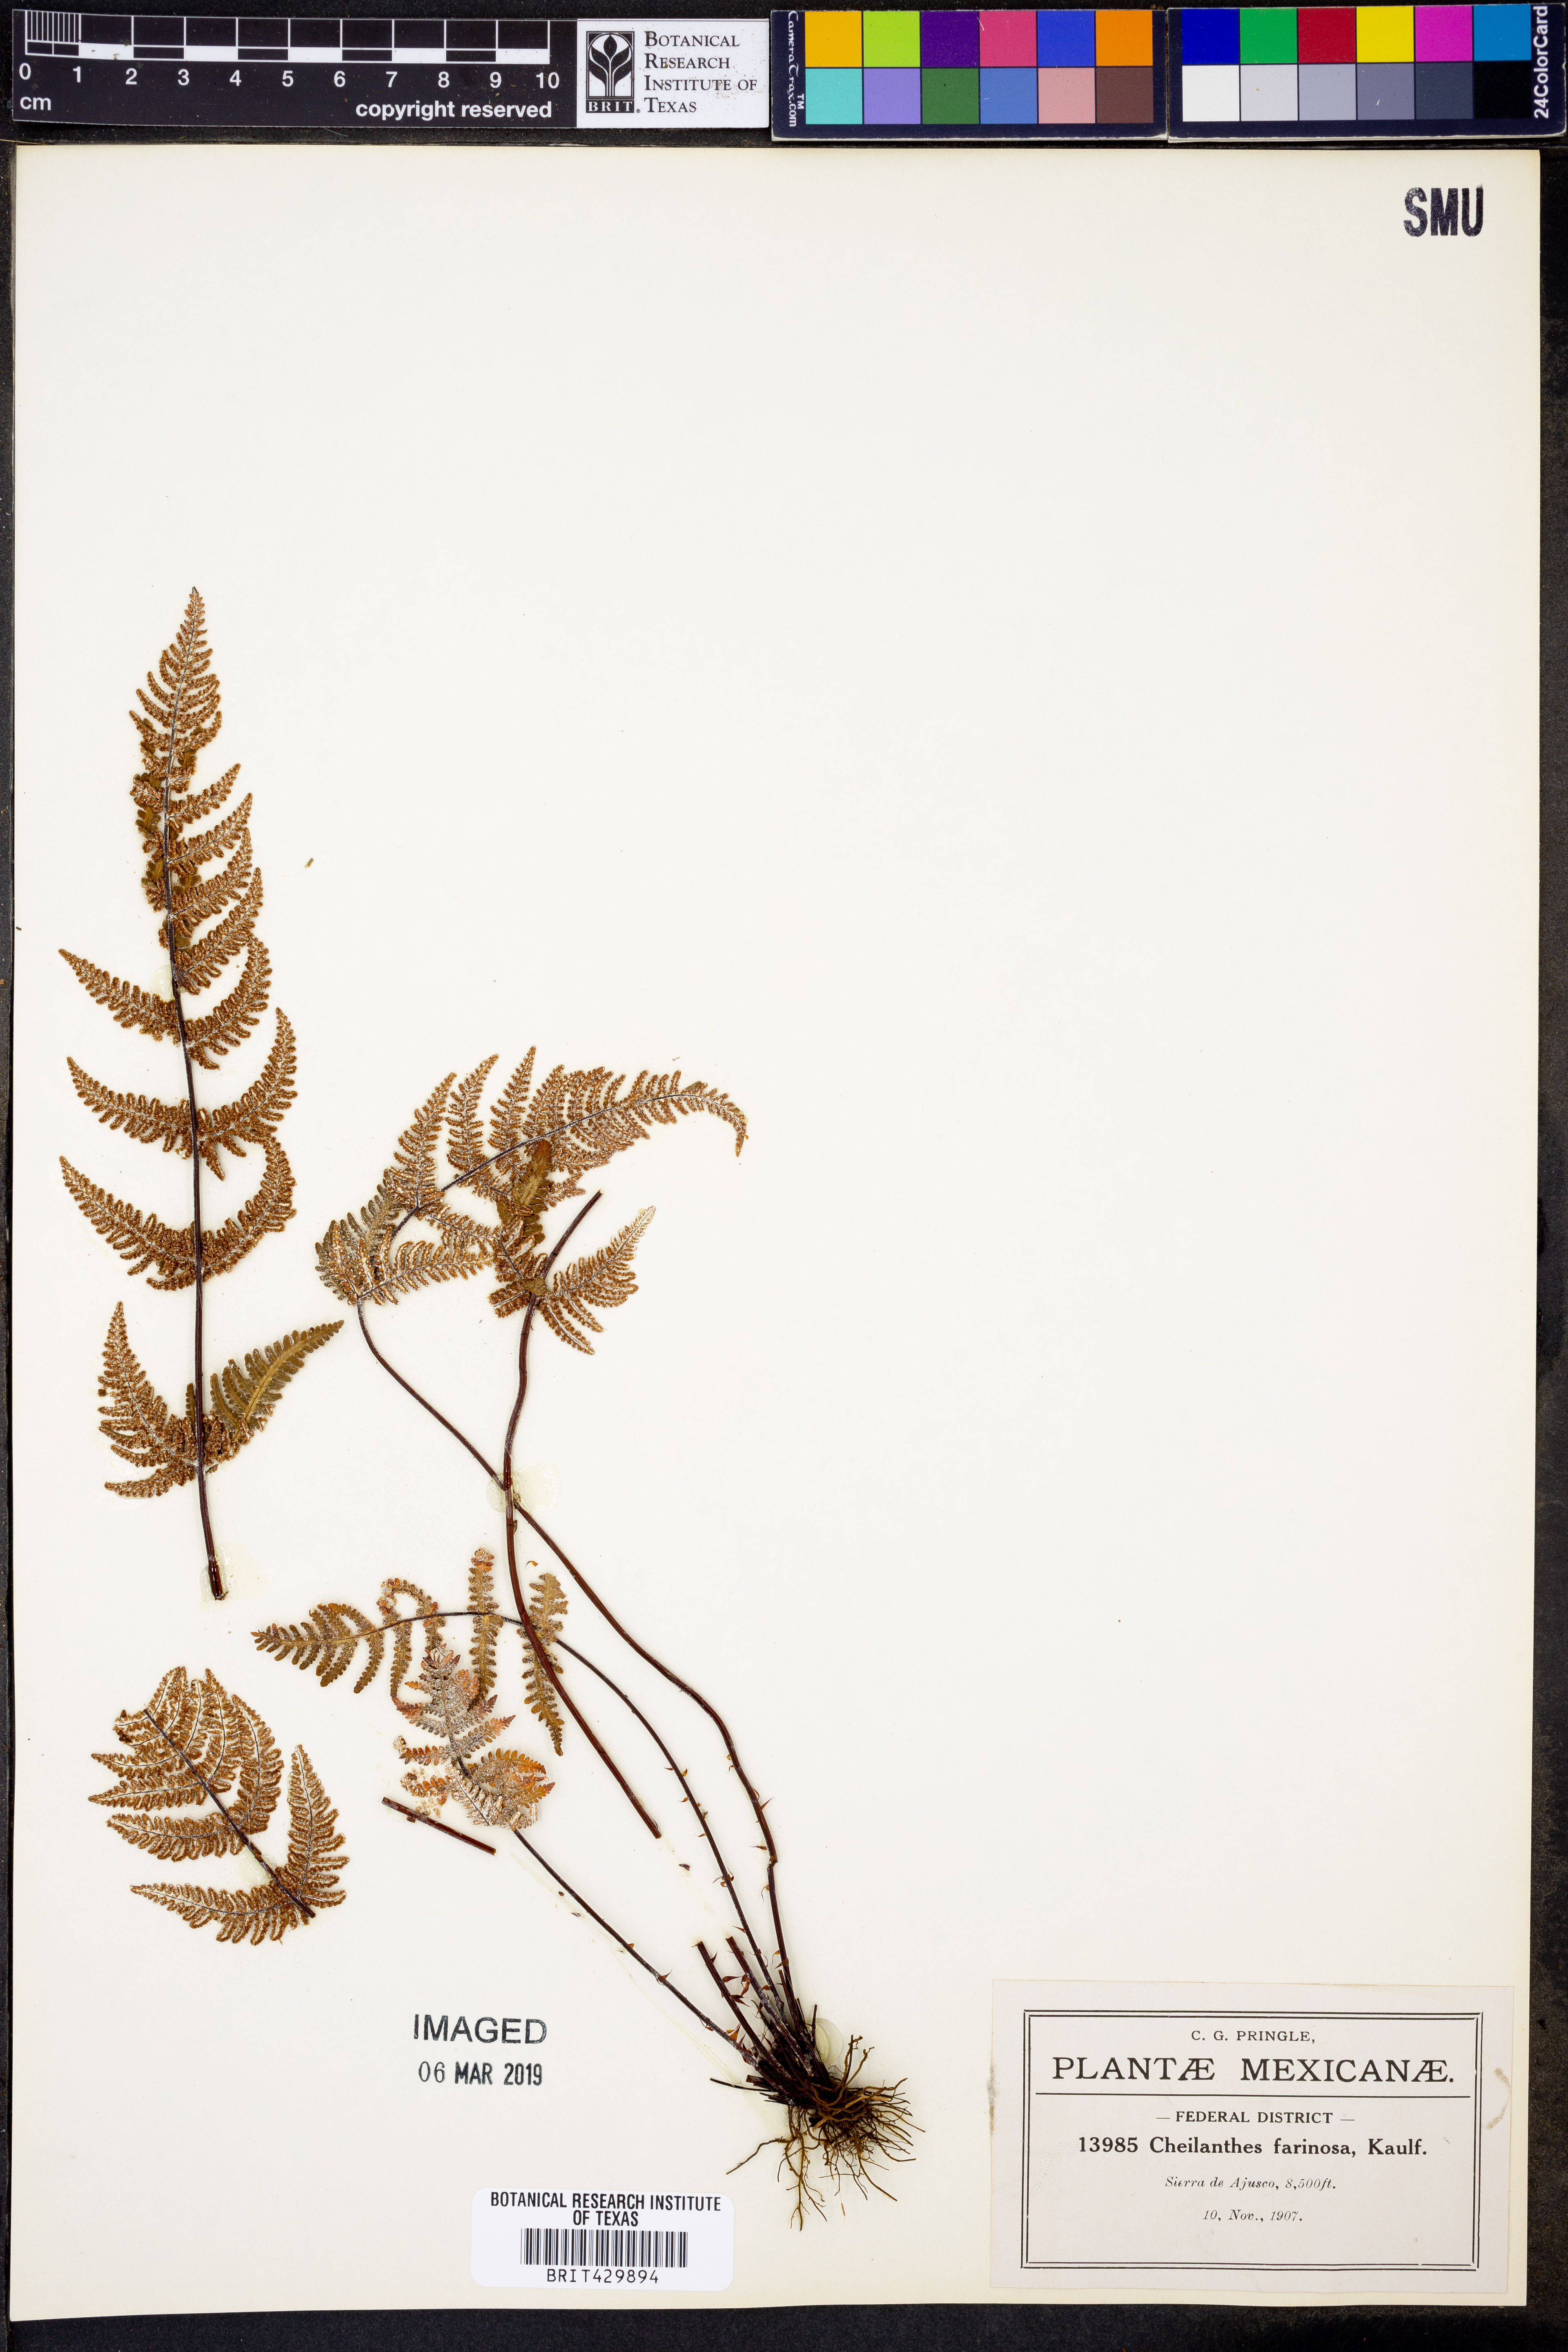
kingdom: Plantae
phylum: Tracheophyta
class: Polypodiopsida
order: Polypodiales
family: Pteridaceae
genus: Aleuritopteris
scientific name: Aleuritopteris farinosa
